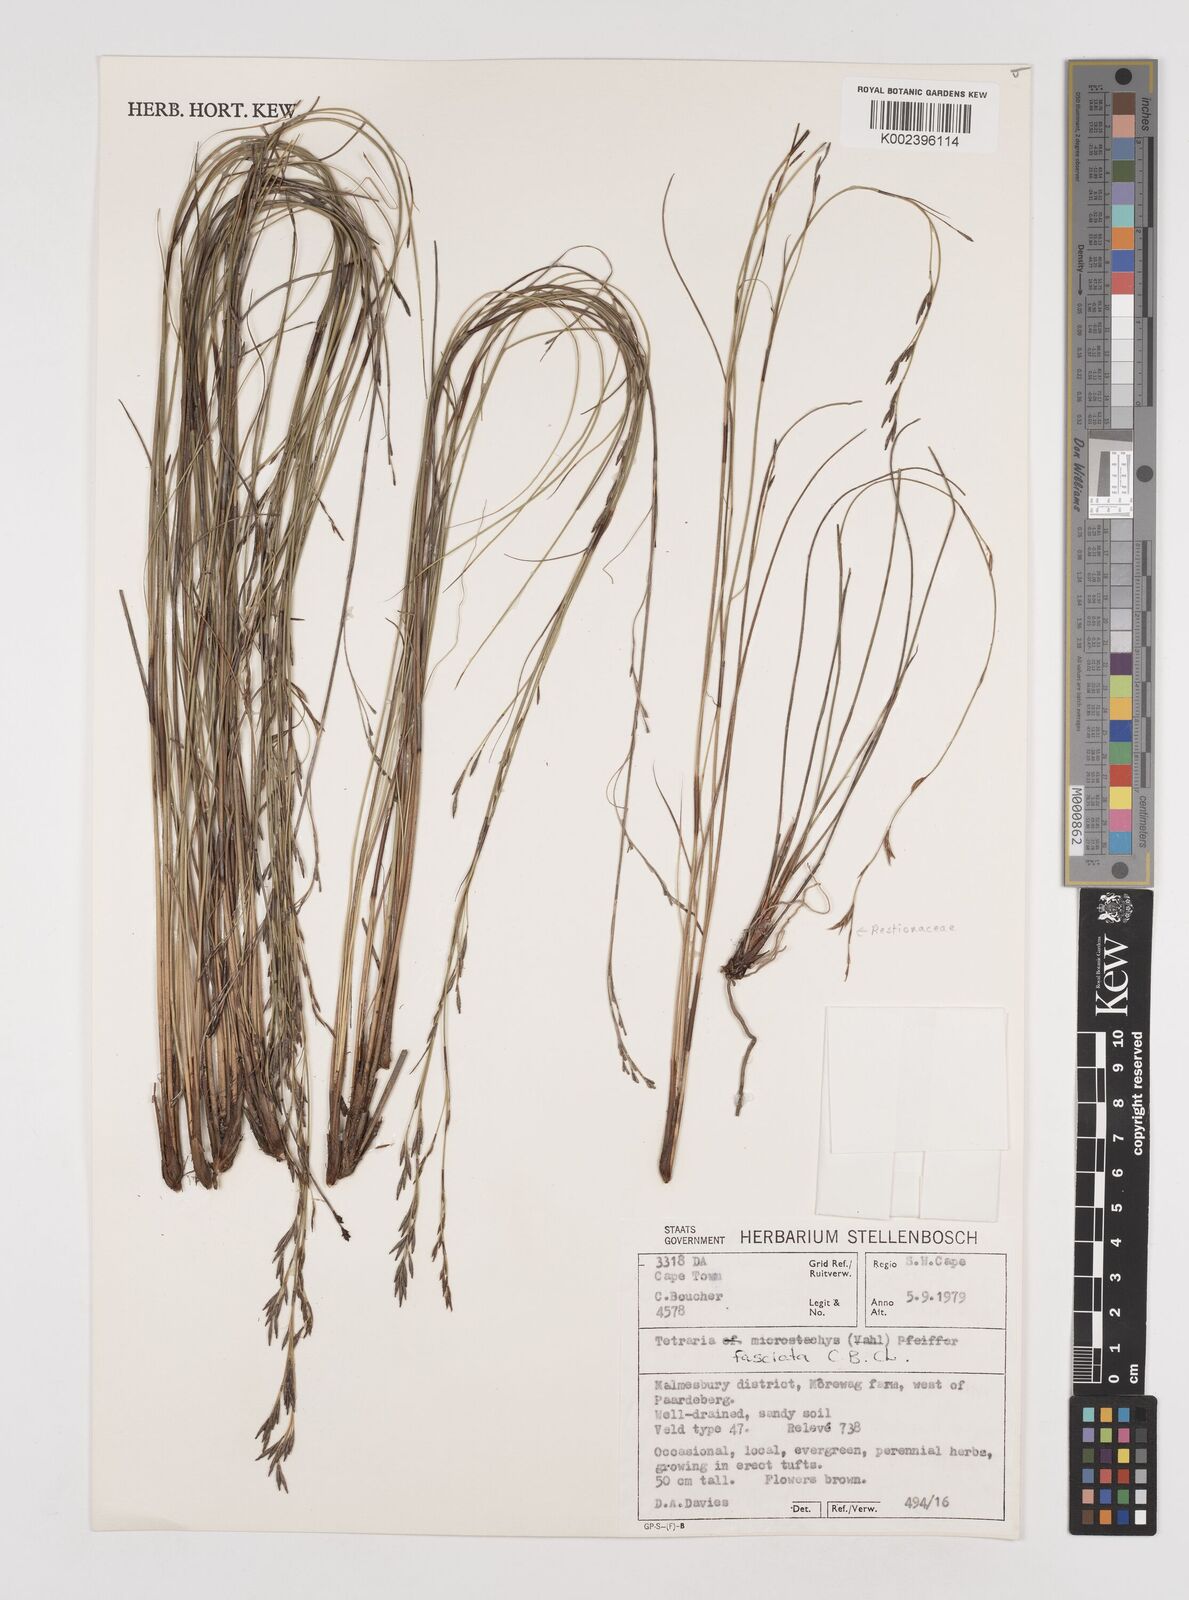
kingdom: Plantae
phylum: Tracheophyta
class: Liliopsida
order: Poales
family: Cyperaceae
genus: Tetraria
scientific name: Tetraria fasciata
